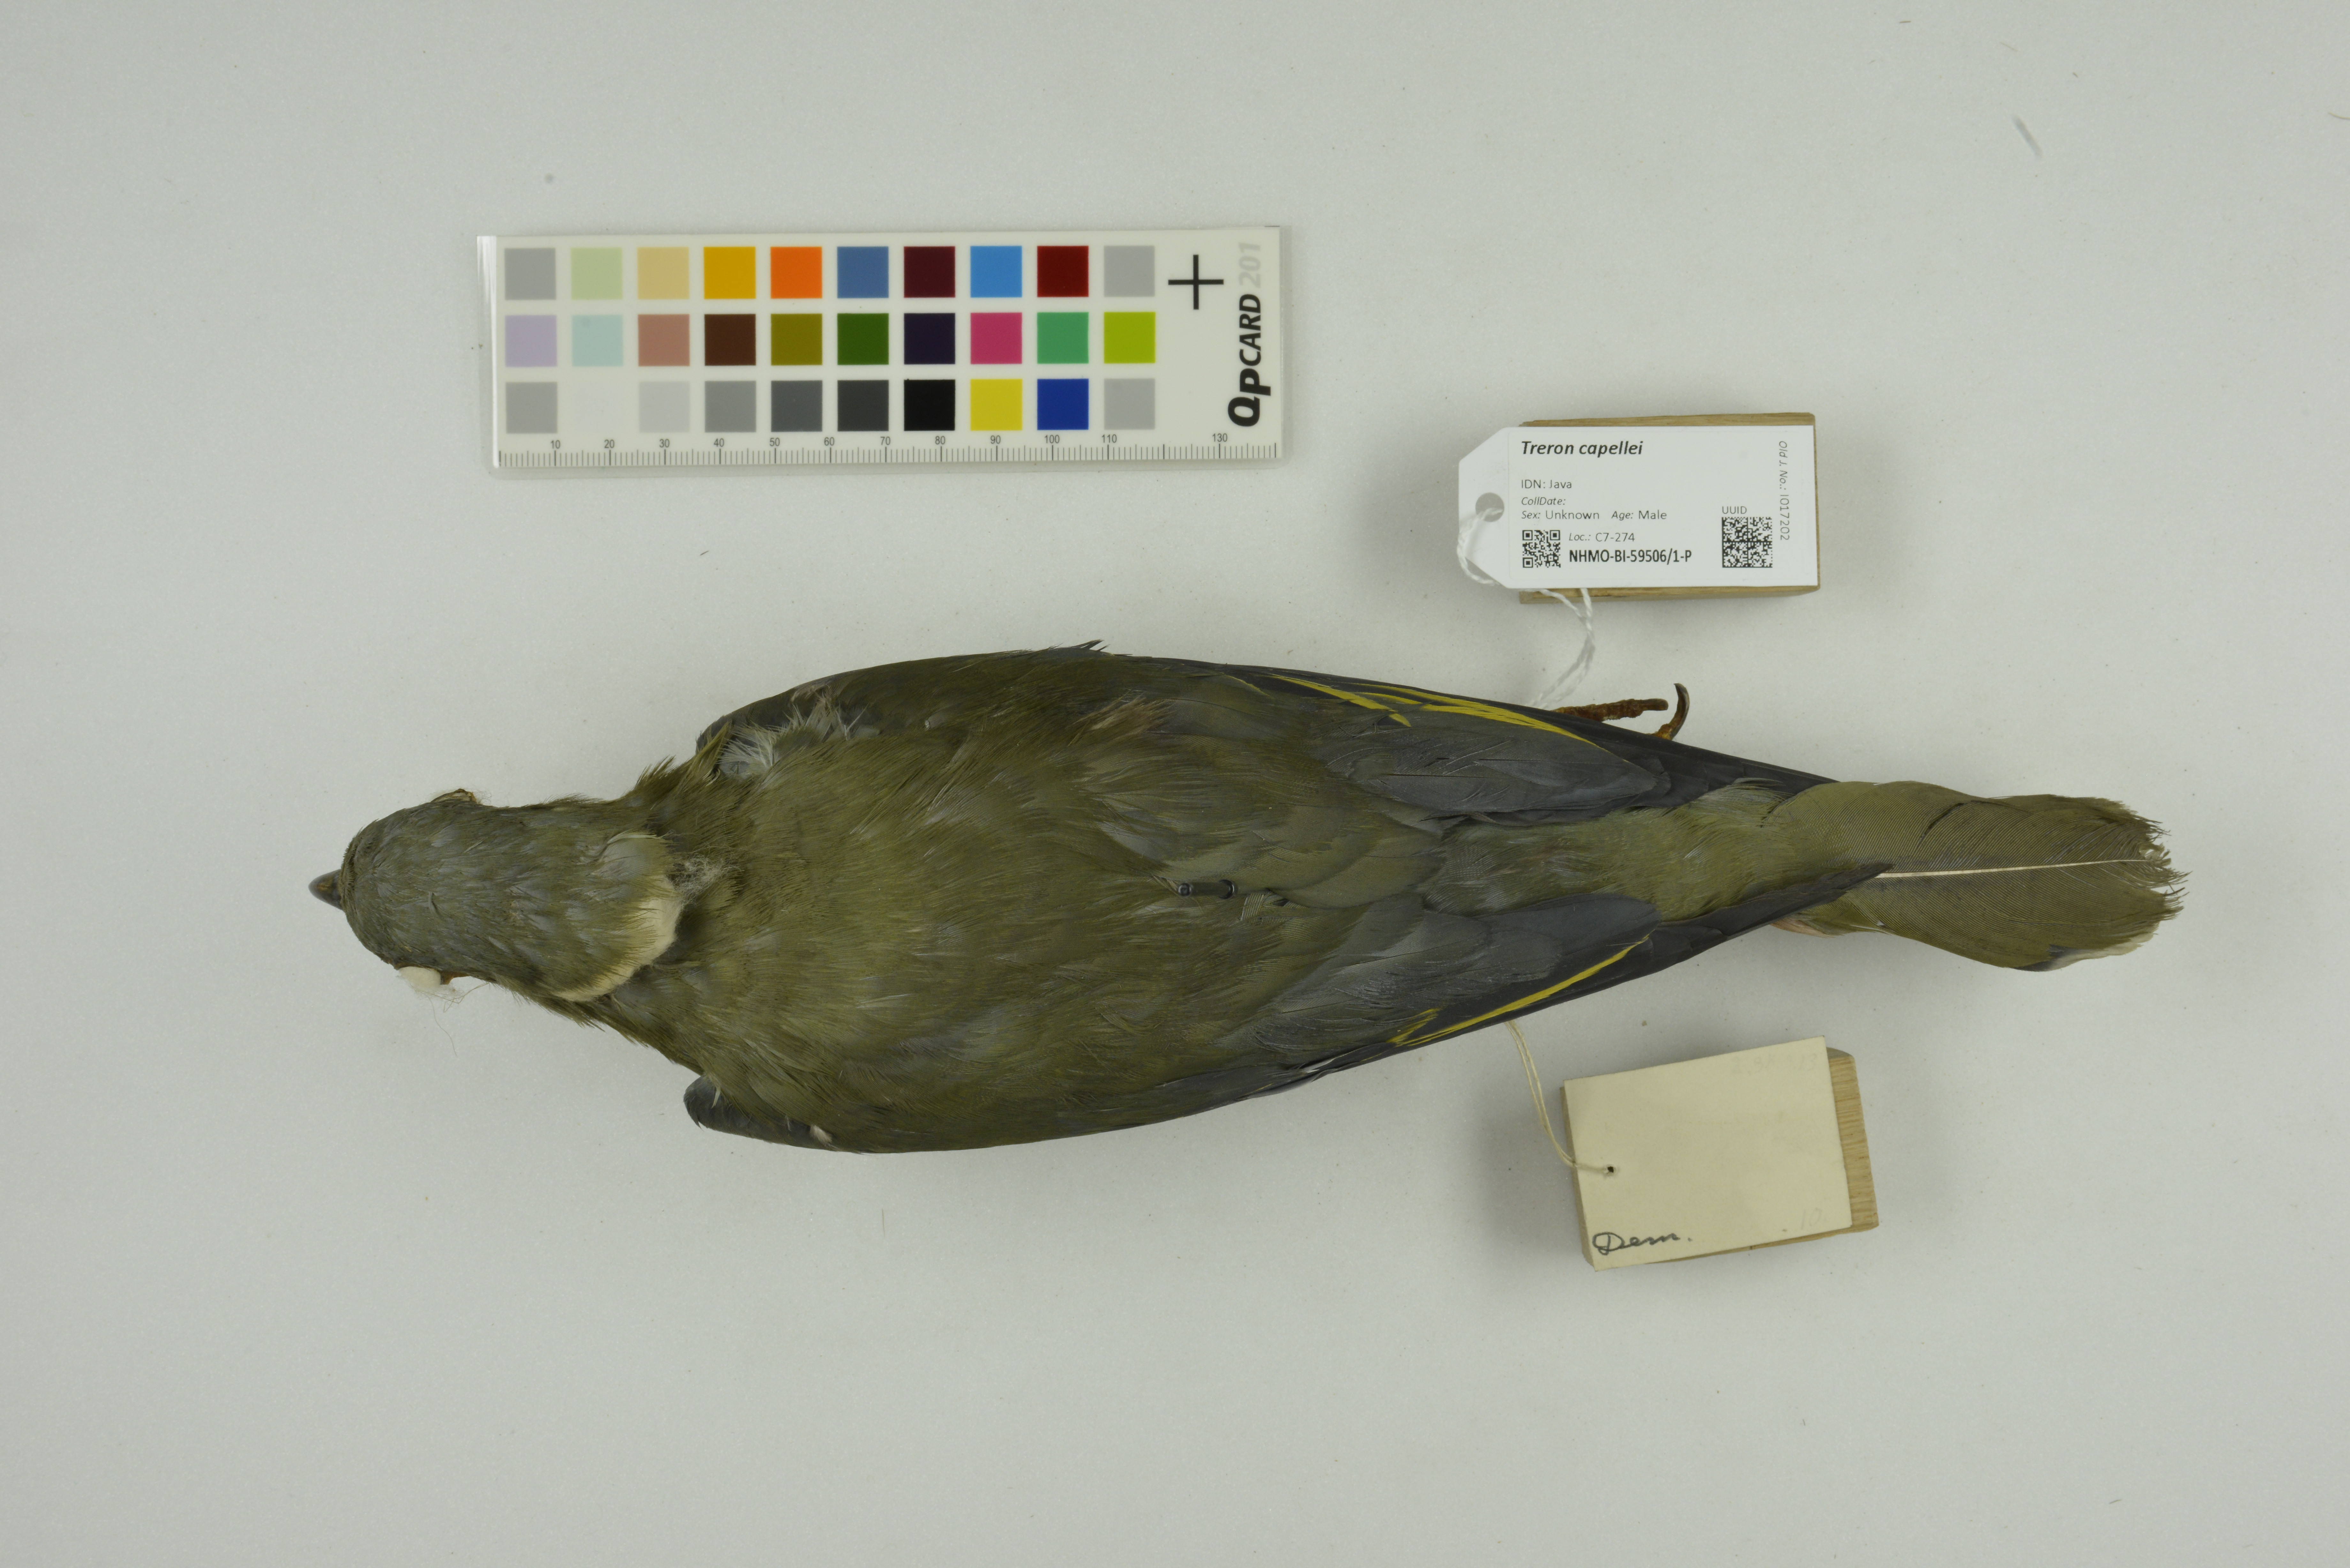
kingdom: Animalia
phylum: Chordata
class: Aves
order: Columbiformes
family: Columbidae
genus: Treron
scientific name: Treron capellei
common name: Large green pigeon
